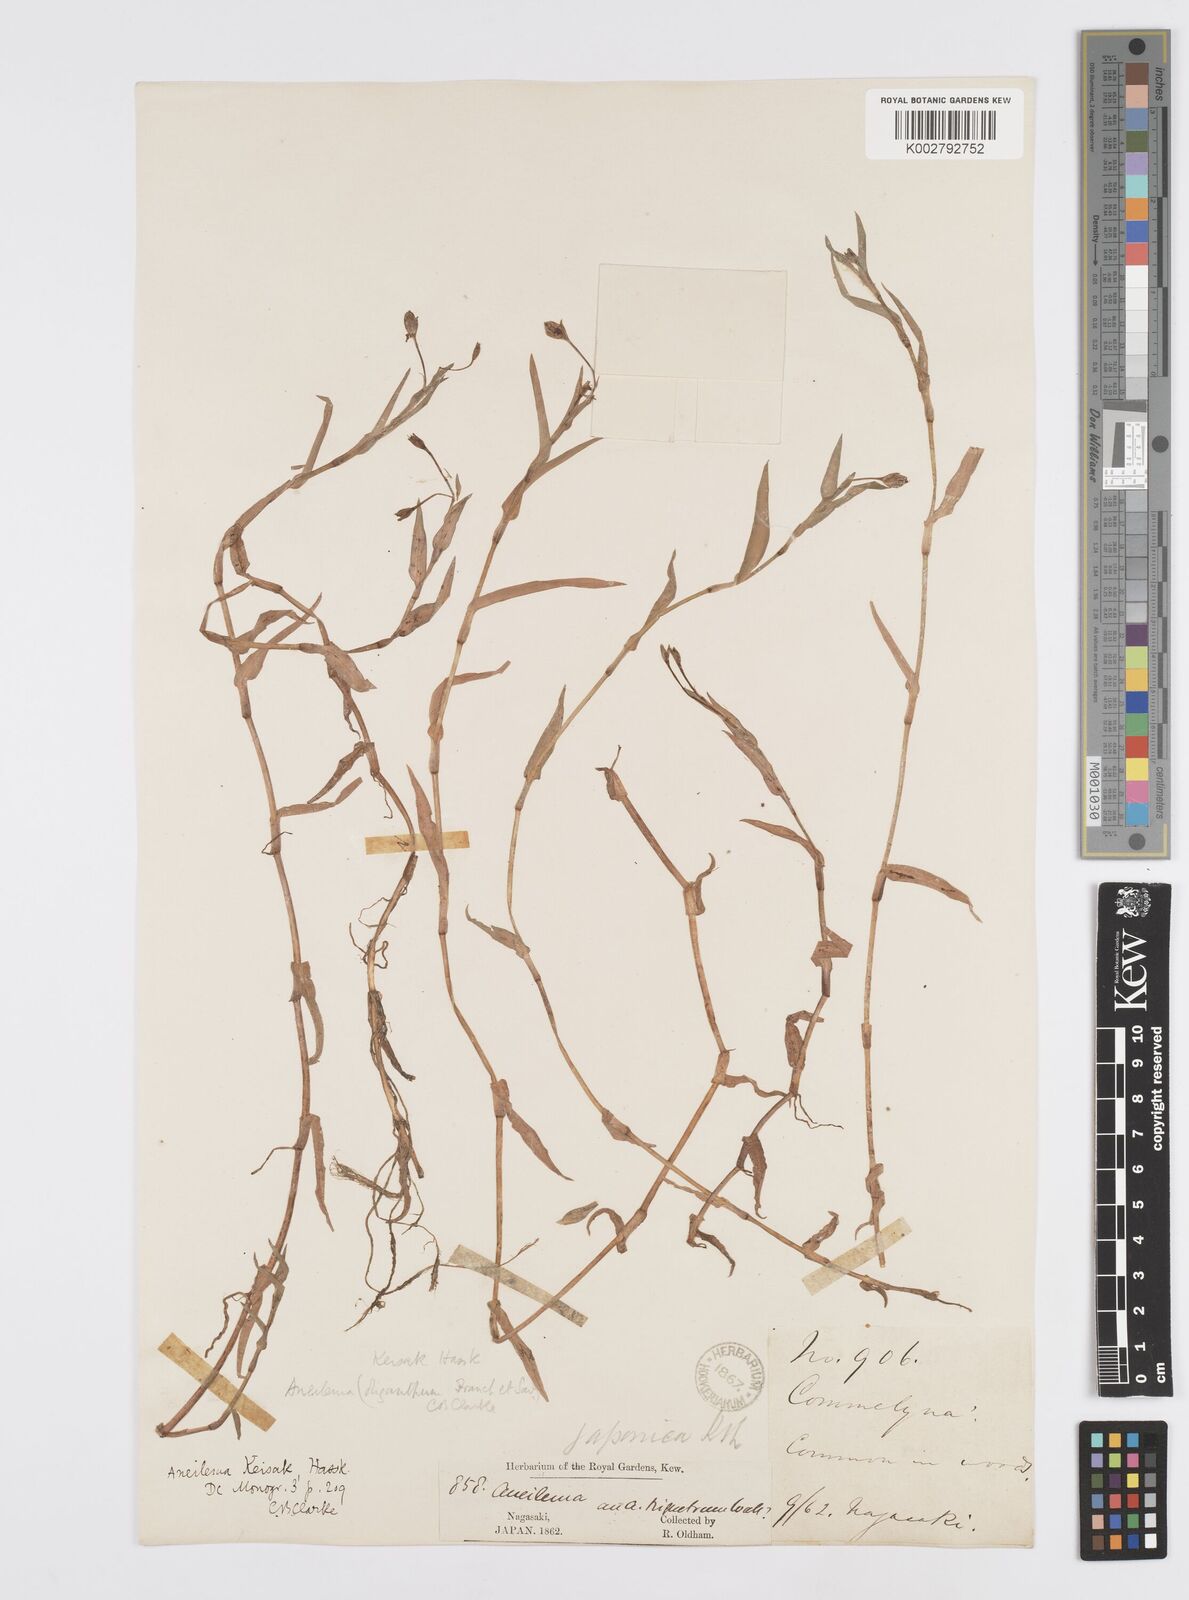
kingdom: Plantae
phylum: Tracheophyta
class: Liliopsida
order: Commelinales
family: Commelinaceae
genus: Murdannia
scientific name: Murdannia keisak
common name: Wartremoving herb
